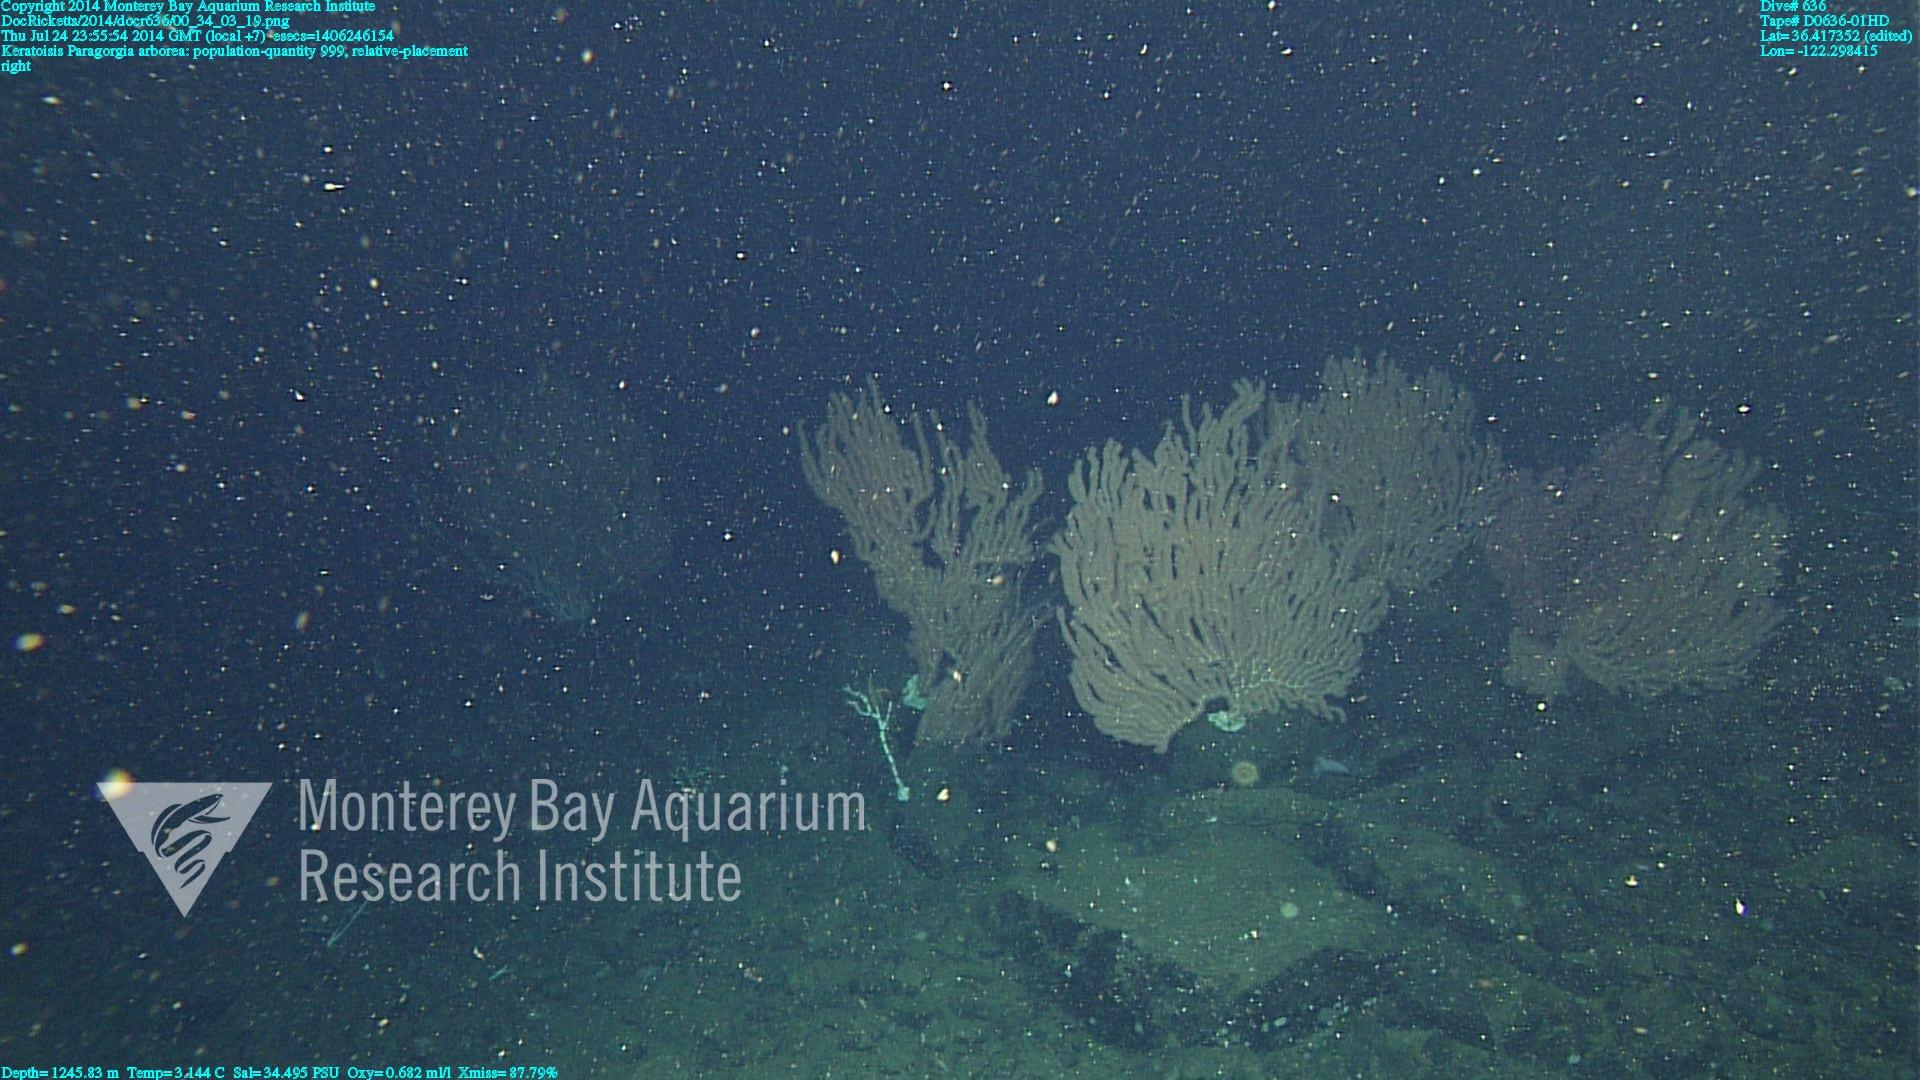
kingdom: Animalia
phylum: Cnidaria
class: Anthozoa
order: Scleralcyonacea
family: Keratoisididae
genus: Keratoisis
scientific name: Keratoisis
